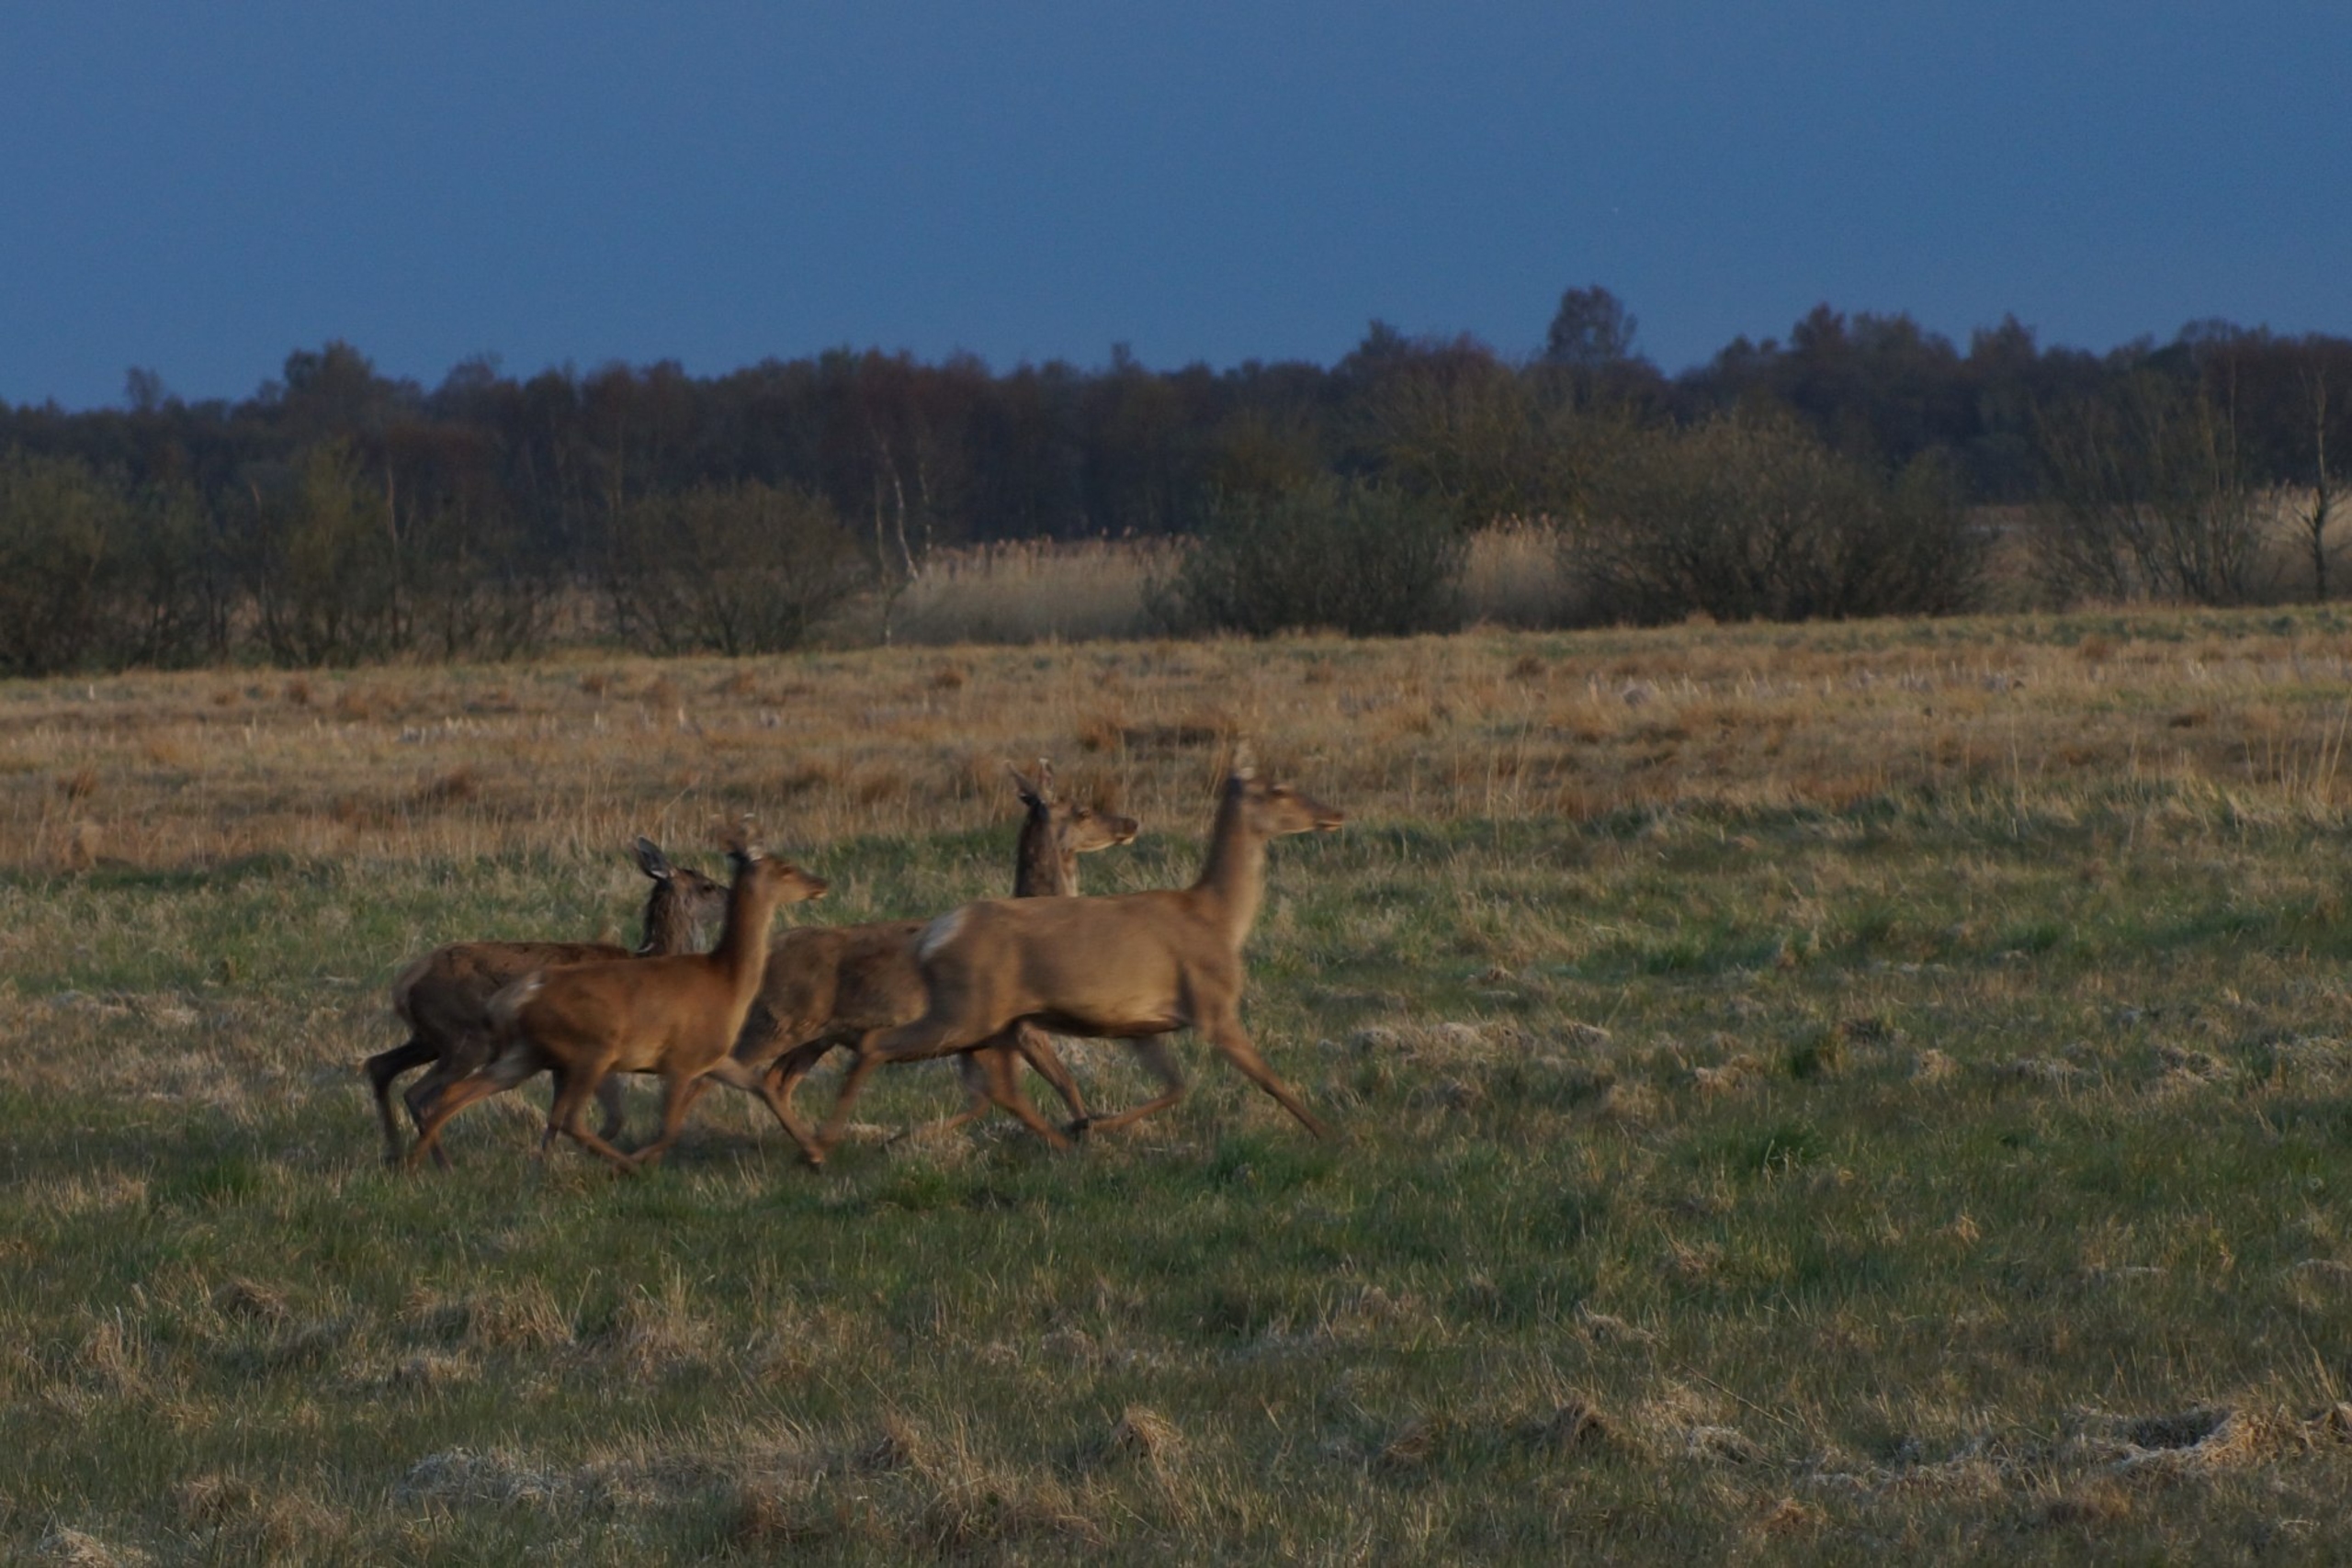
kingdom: Animalia
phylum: Chordata
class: Mammalia
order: Artiodactyla
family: Cervidae
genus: Cervus
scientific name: Cervus elaphus
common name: Krondyr
